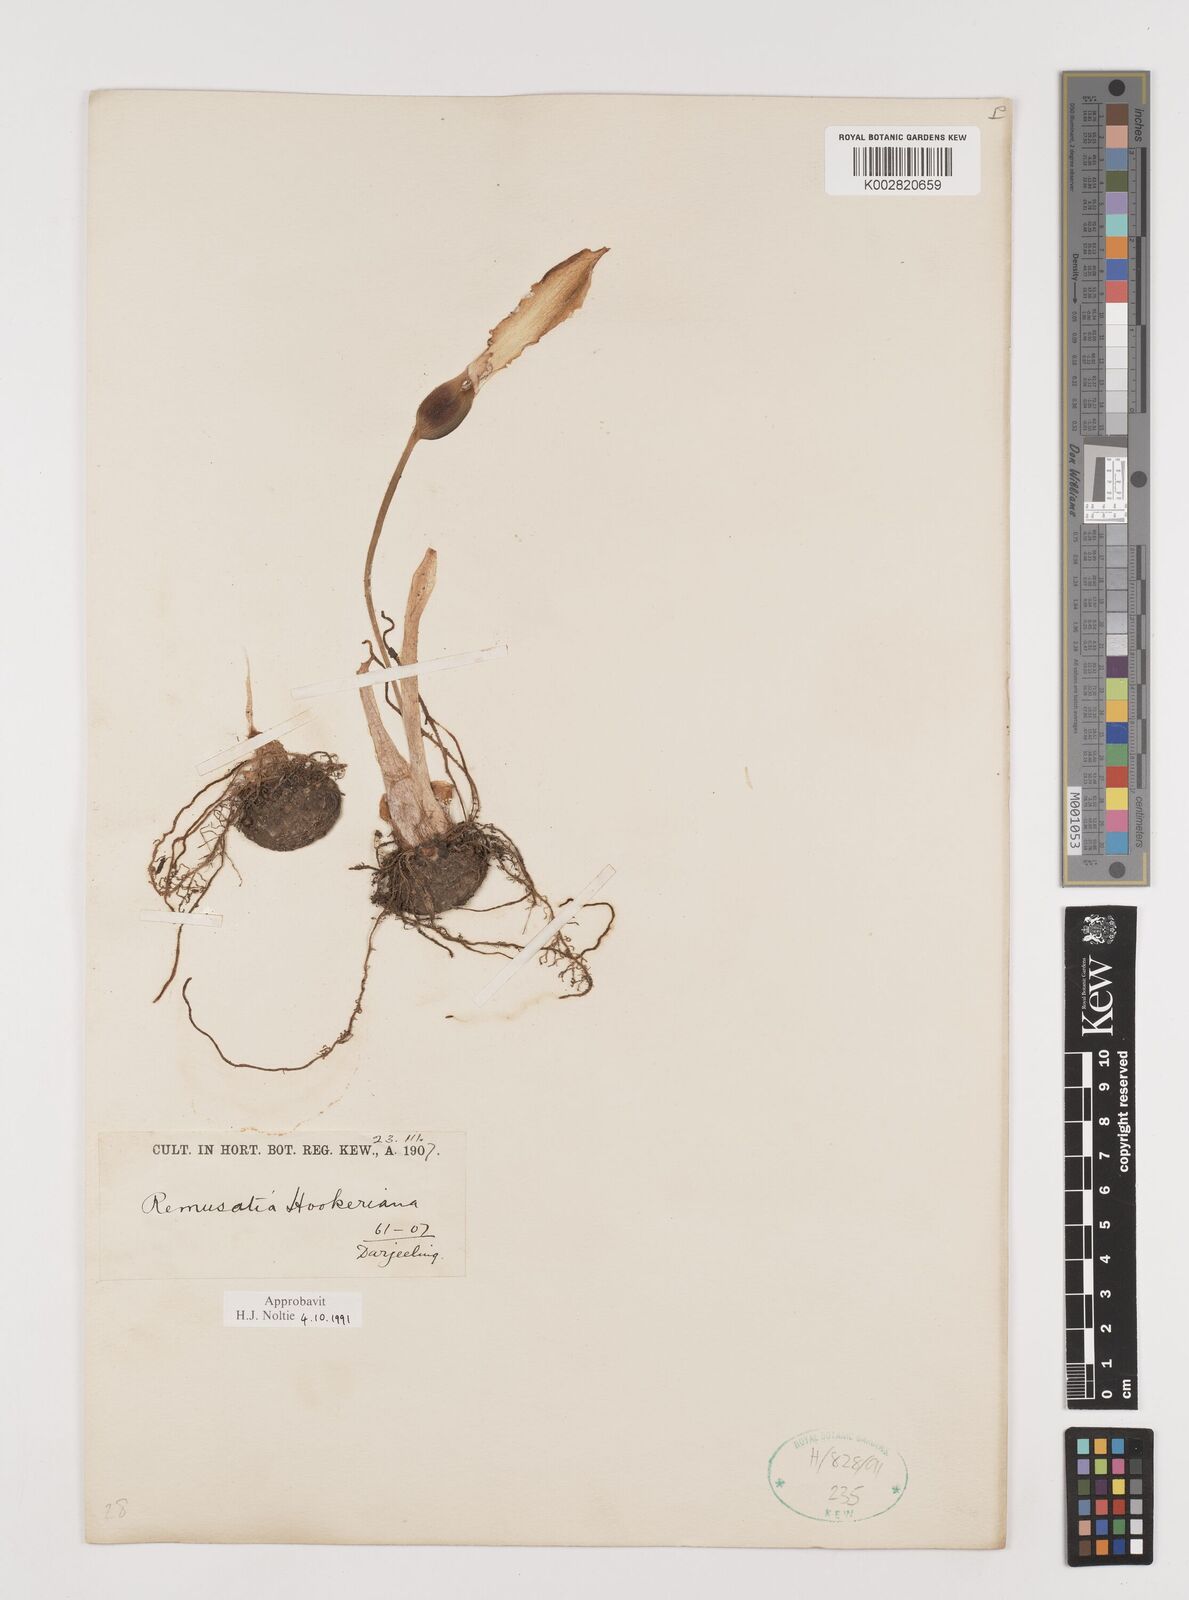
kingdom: Plantae
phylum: Tracheophyta
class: Liliopsida
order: Alismatales
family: Araceae
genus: Remusatia
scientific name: Remusatia hookeriana
